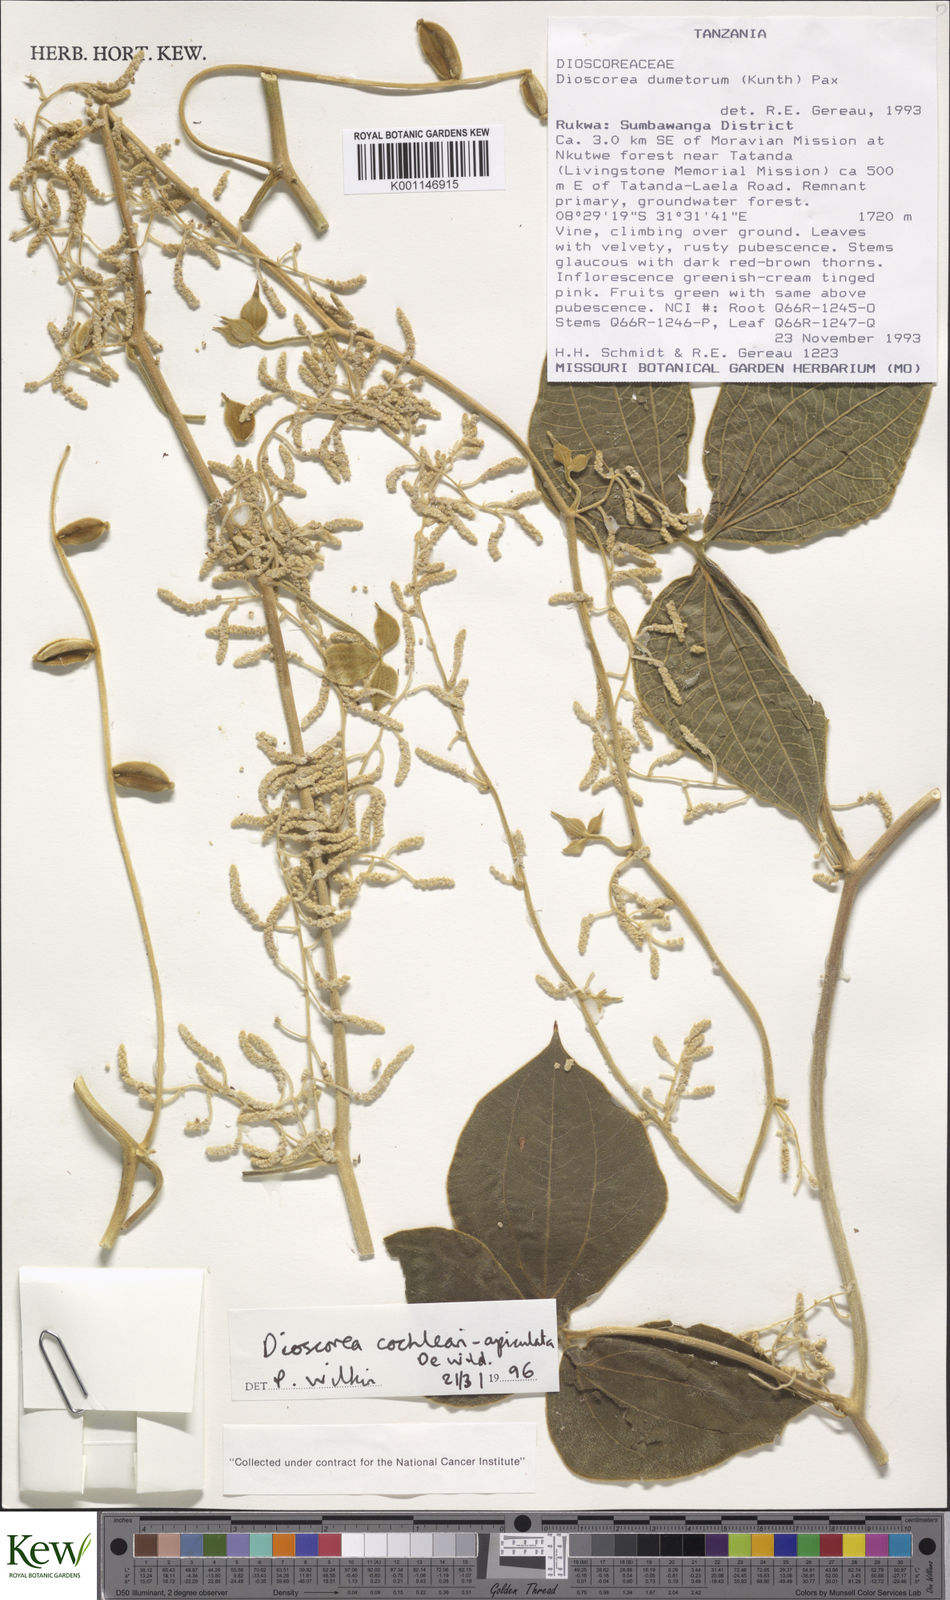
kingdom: Plantae
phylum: Tracheophyta
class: Liliopsida
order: Dioscoreales
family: Dioscoreaceae
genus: Dioscorea
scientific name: Dioscorea cochleariapiculata
